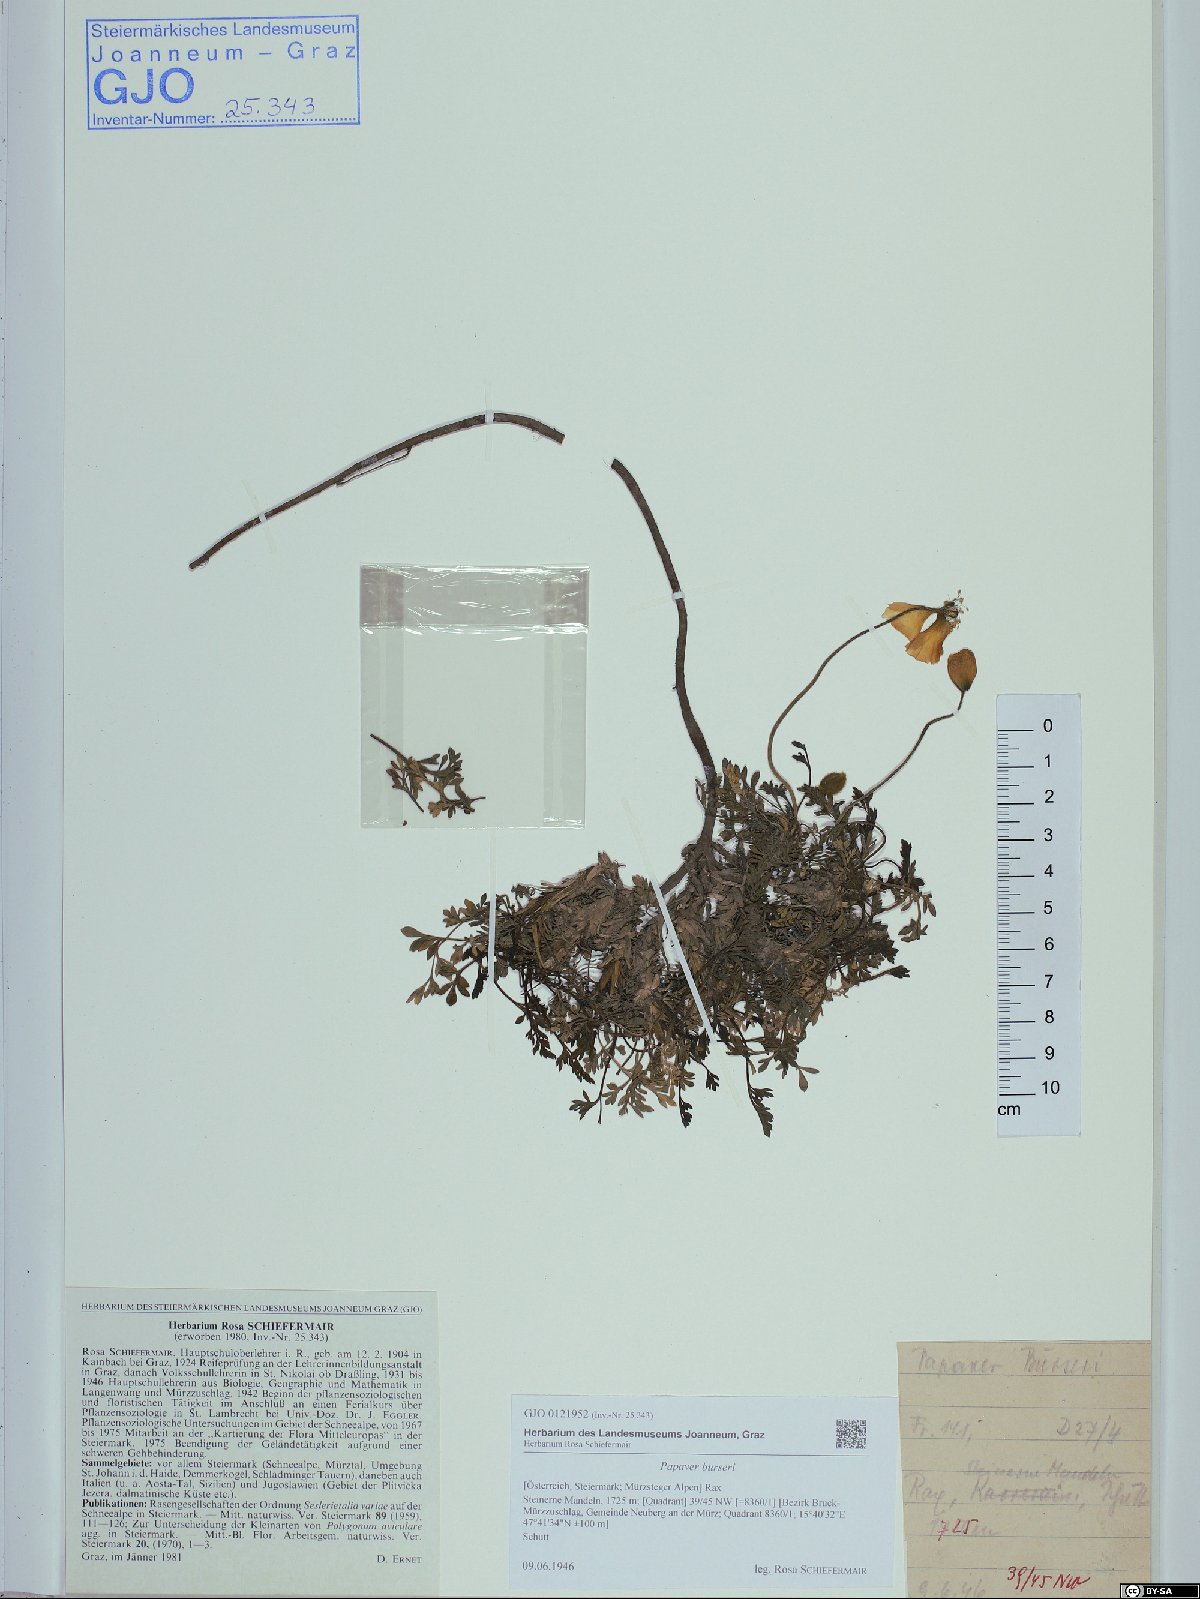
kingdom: Plantae
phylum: Tracheophyta
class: Magnoliopsida
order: Ranunculales
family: Papaveraceae
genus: Papaver
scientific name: Papaver alpinum
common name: Austrian poppy
